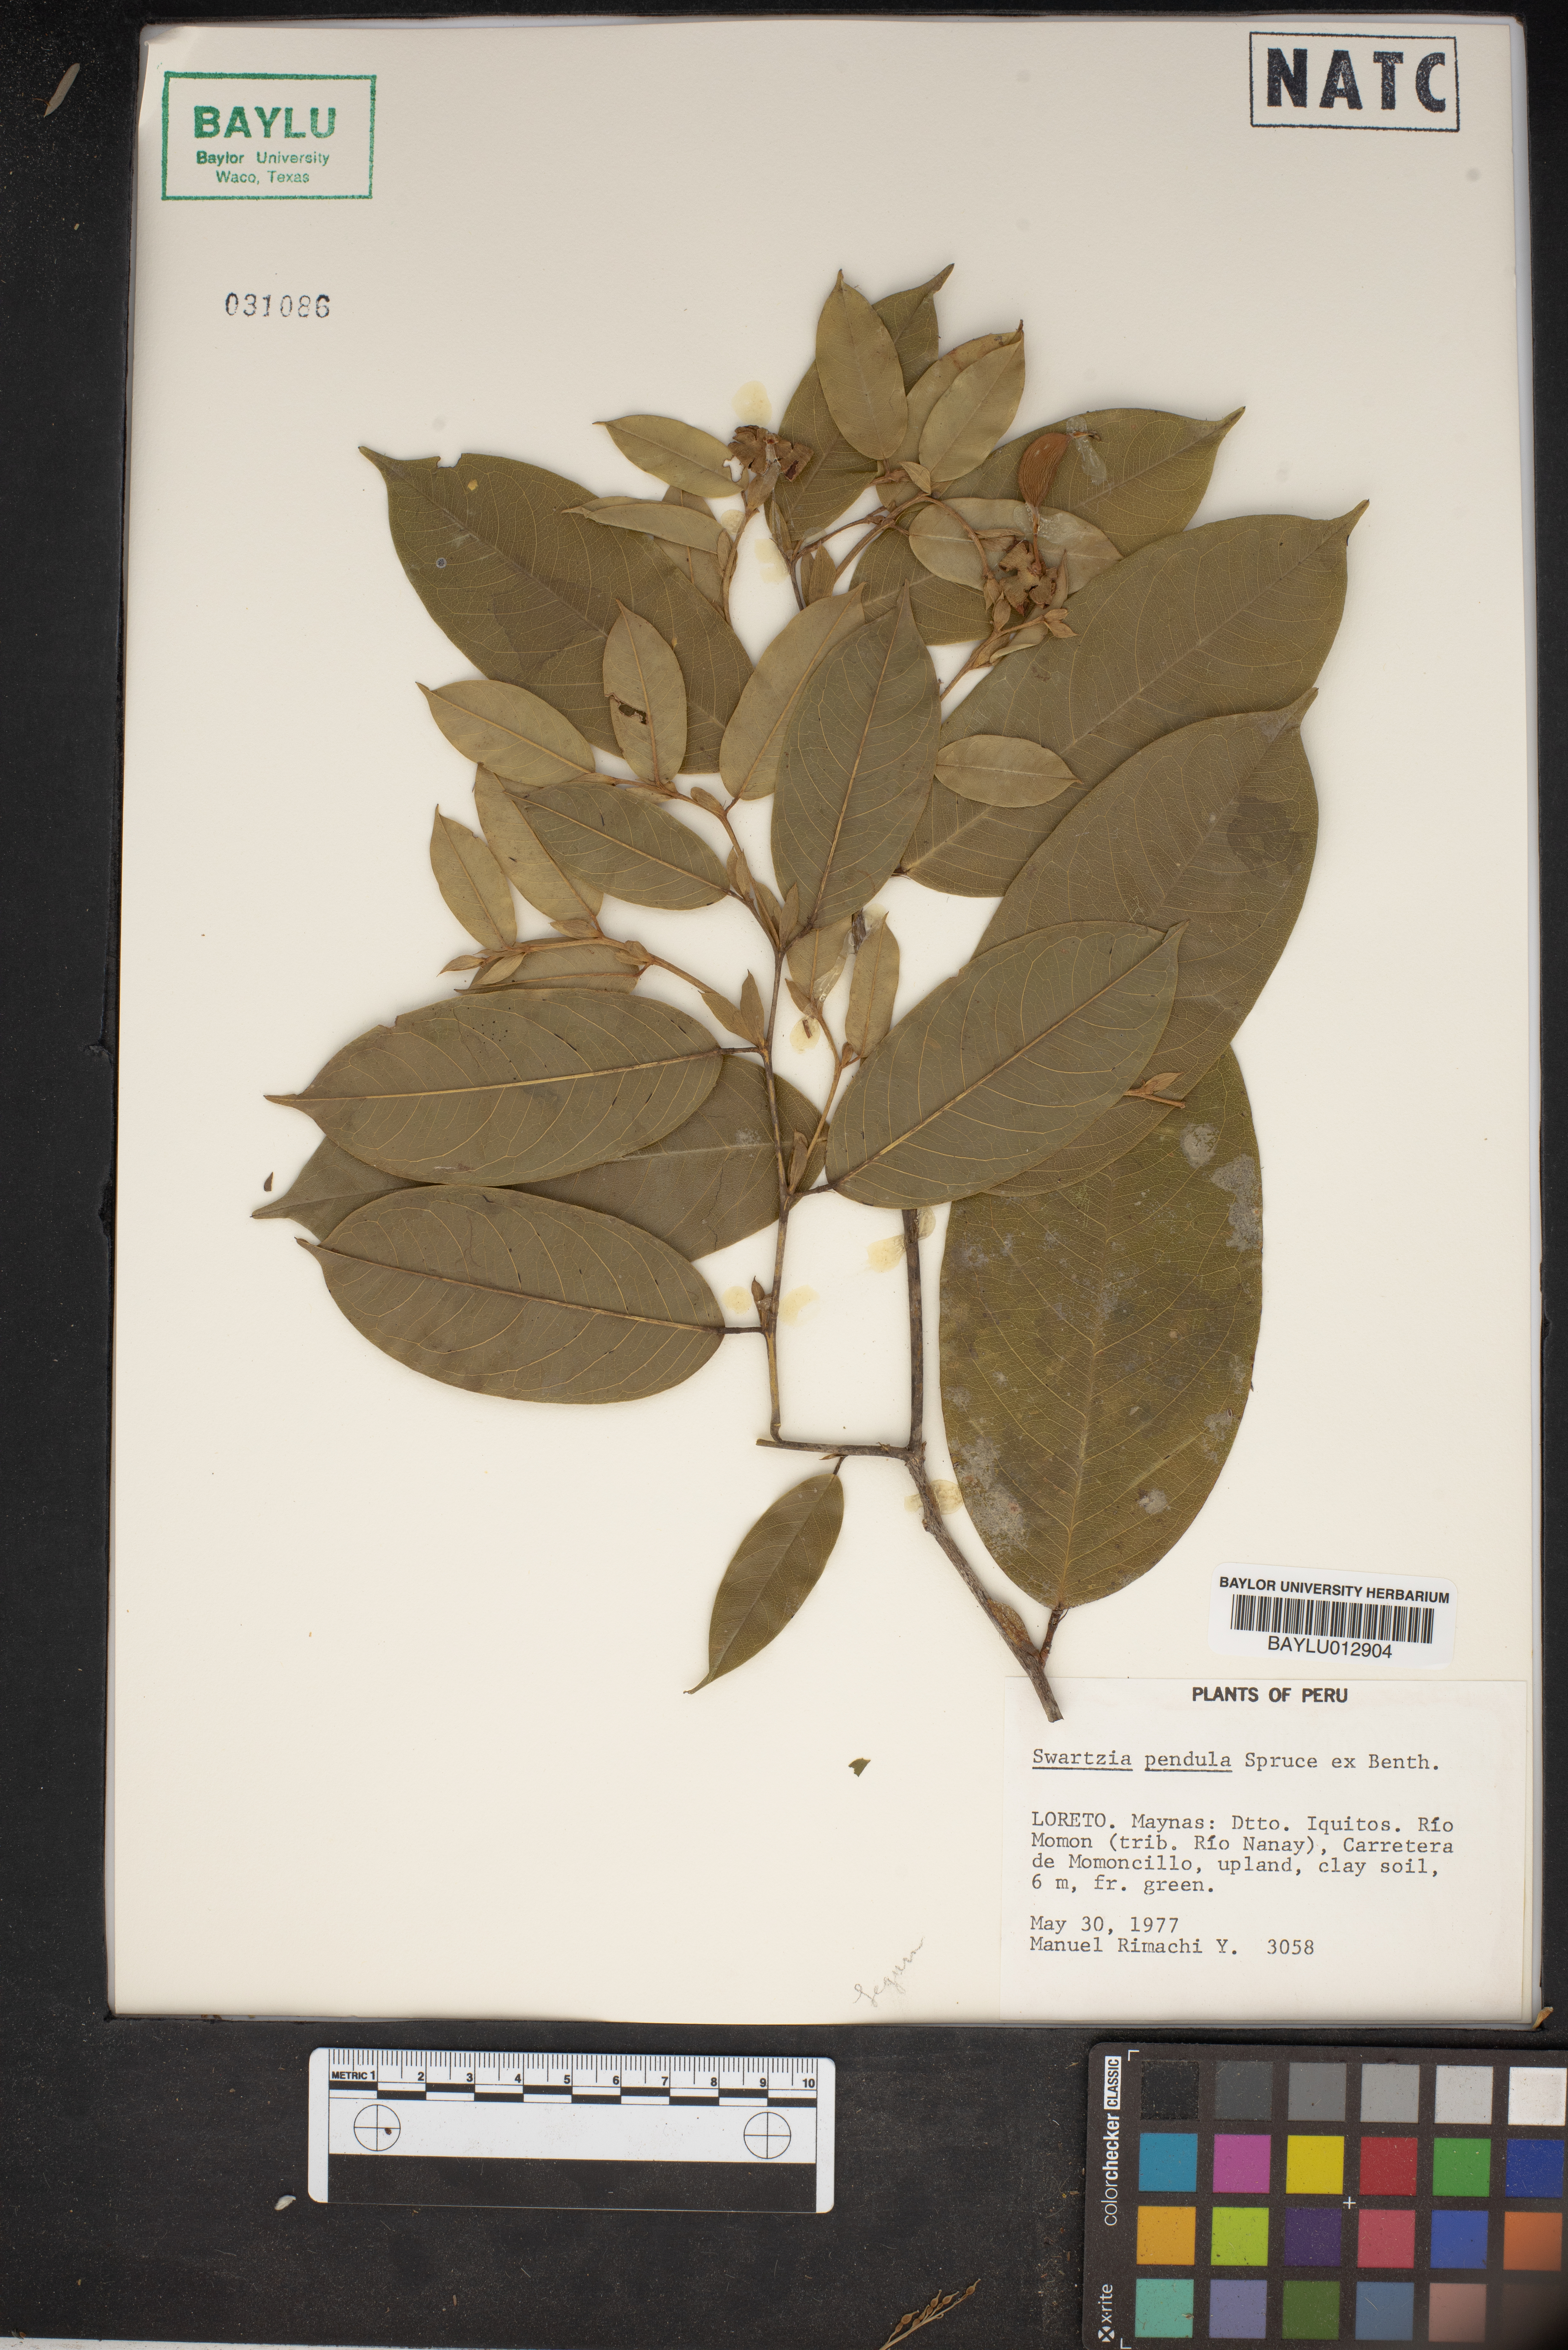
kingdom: Plantae
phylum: Tracheophyta
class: Magnoliopsida
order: Fabales
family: Fabaceae
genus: Swartzia
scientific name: Swartzia pendula
